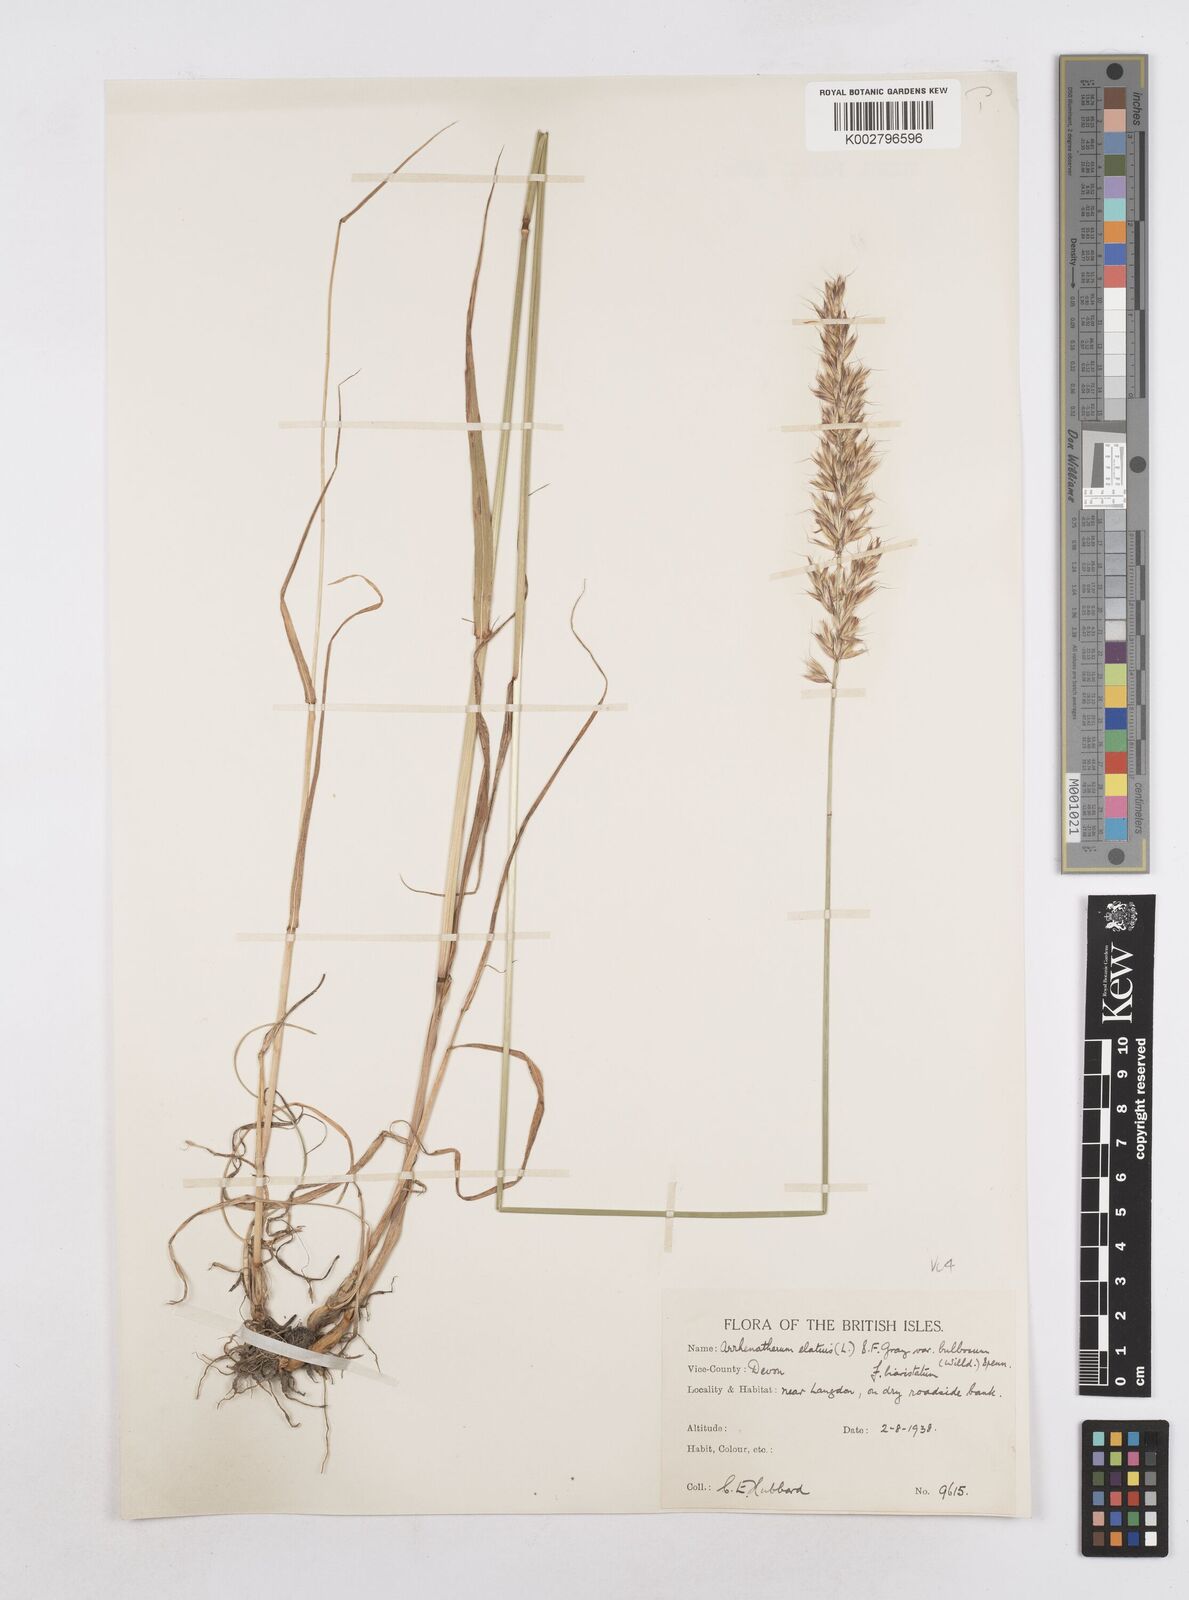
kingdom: Plantae
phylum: Tracheophyta
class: Liliopsida
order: Poales
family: Poaceae
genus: Arrhenatherum
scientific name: Arrhenatherum elatius
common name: Tall oatgrass
